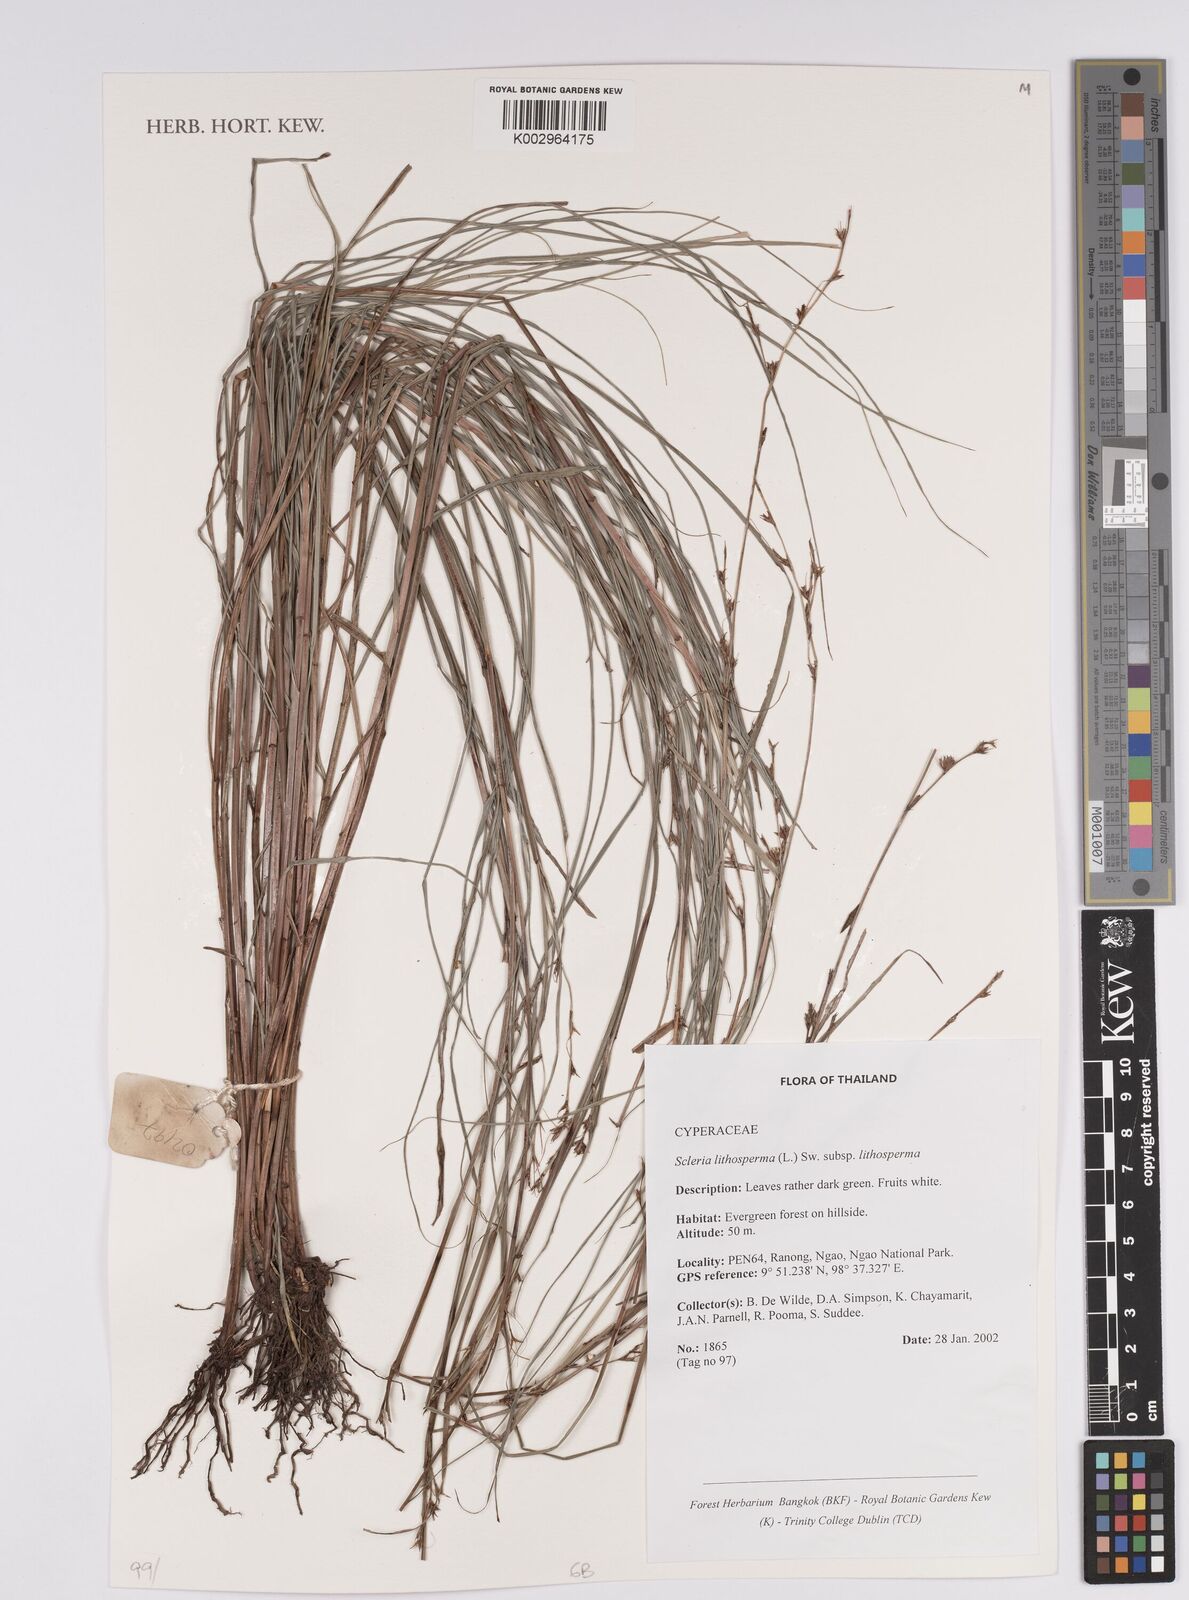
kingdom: Plantae
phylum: Tracheophyta
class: Liliopsida
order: Poales
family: Cyperaceae
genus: Scleria
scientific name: Scleria lithosperma
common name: Florida keys nut-rush
